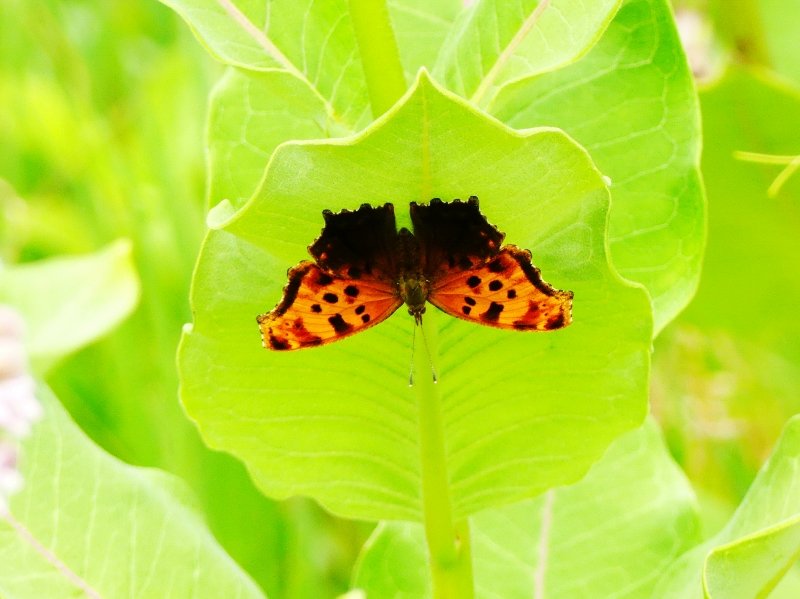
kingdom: Animalia
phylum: Arthropoda
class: Insecta
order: Lepidoptera
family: Nymphalidae
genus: Polygonia
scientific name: Polygonia comma
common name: Eastern Comma
